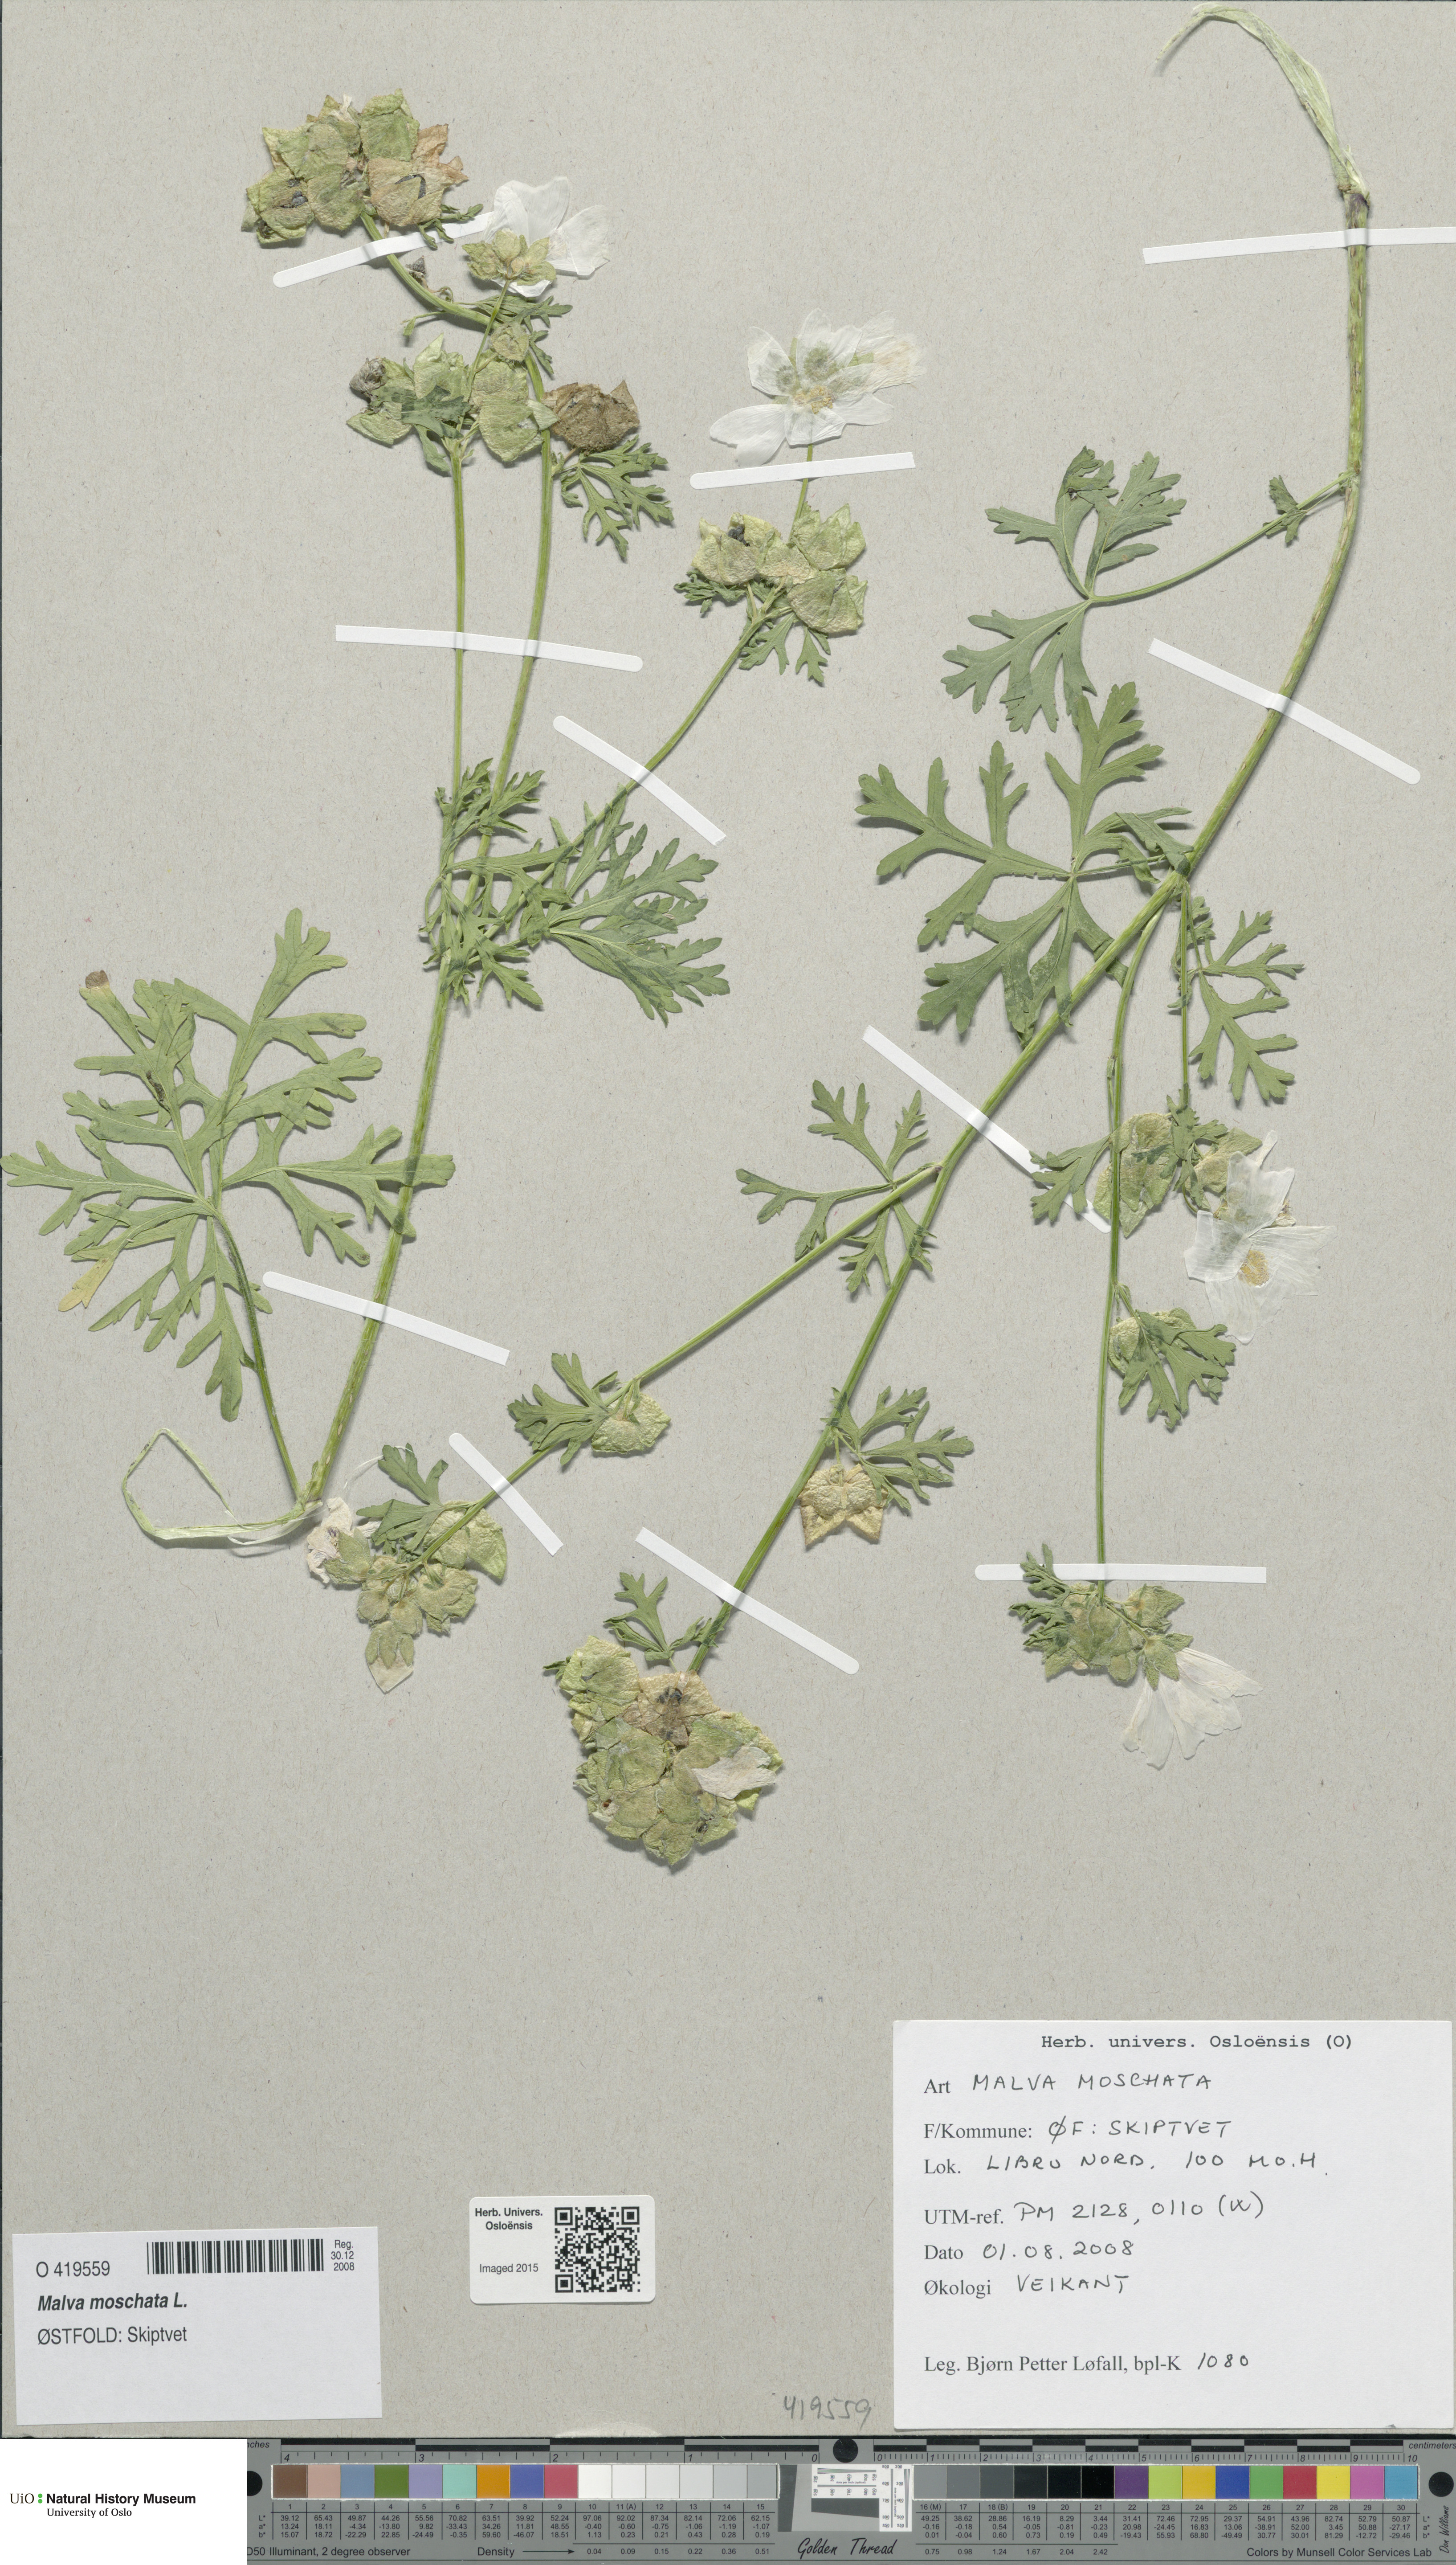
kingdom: Plantae
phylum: Tracheophyta
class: Magnoliopsida
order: Malvales
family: Malvaceae
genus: Malva
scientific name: Malva moschata
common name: Musk mallow
